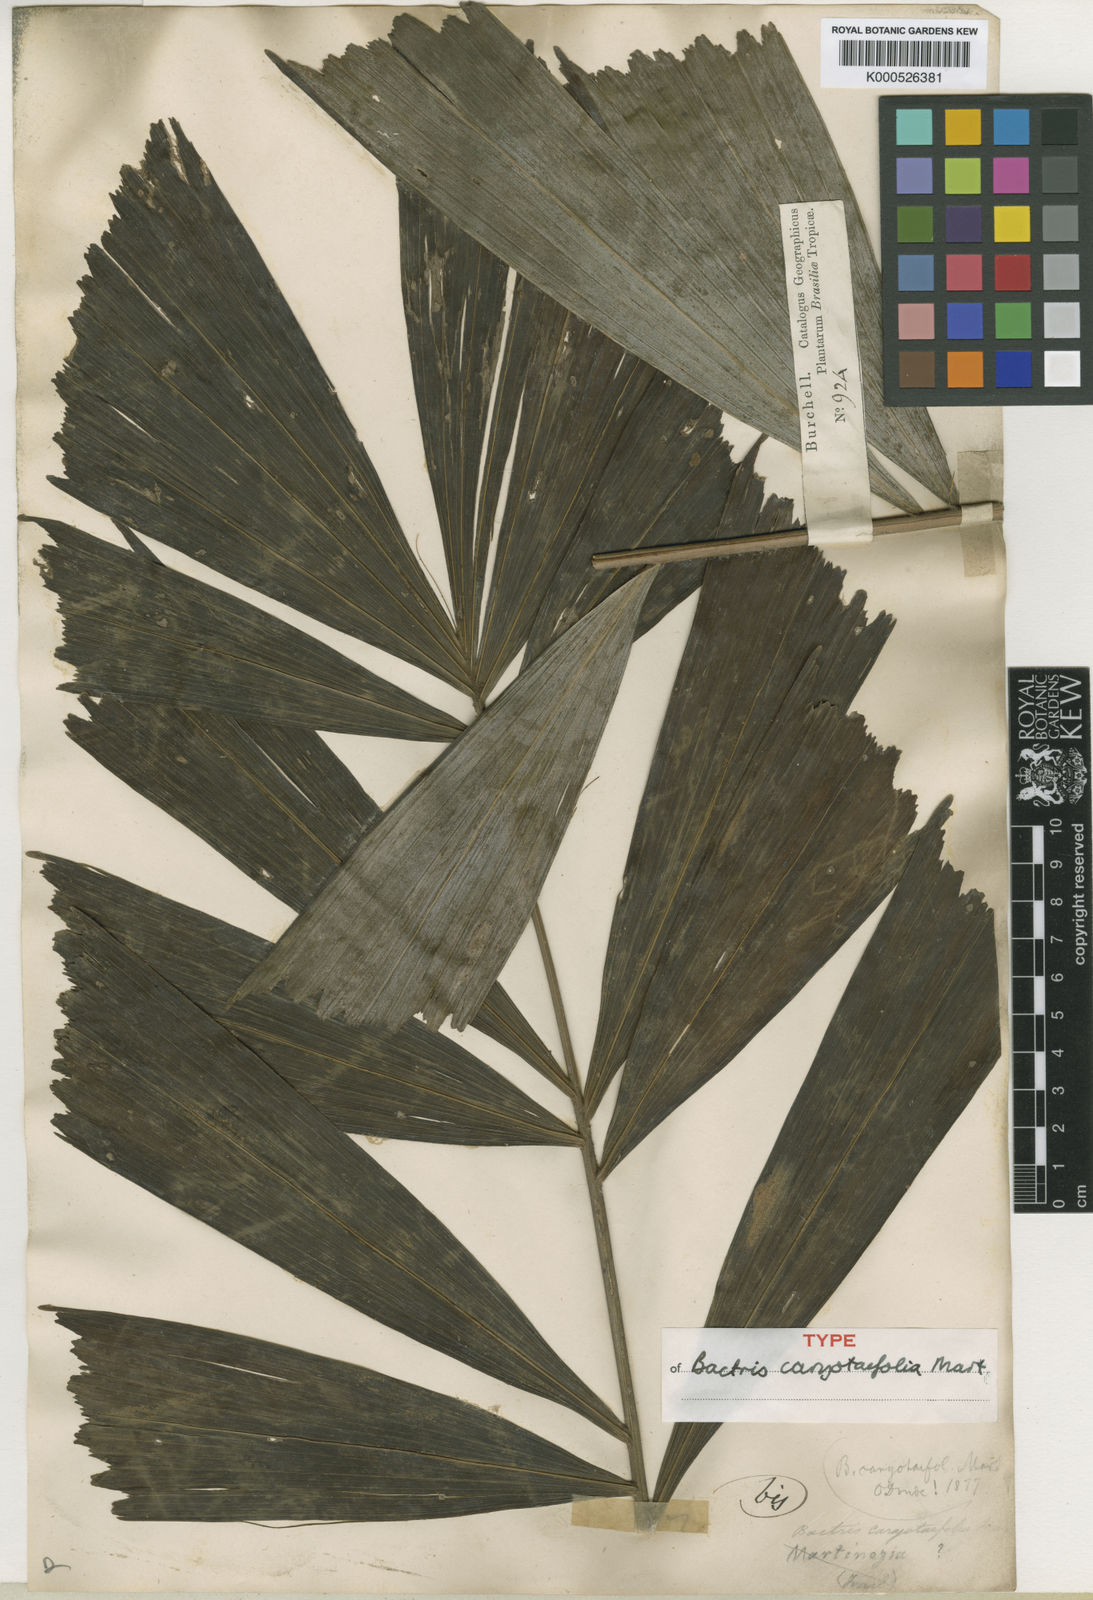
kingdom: Plantae
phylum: Tracheophyta
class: Liliopsida
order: Arecales
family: Arecaceae
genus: Bactris
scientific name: Bactris caryotifolia
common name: Caryota-leaf peach palm
